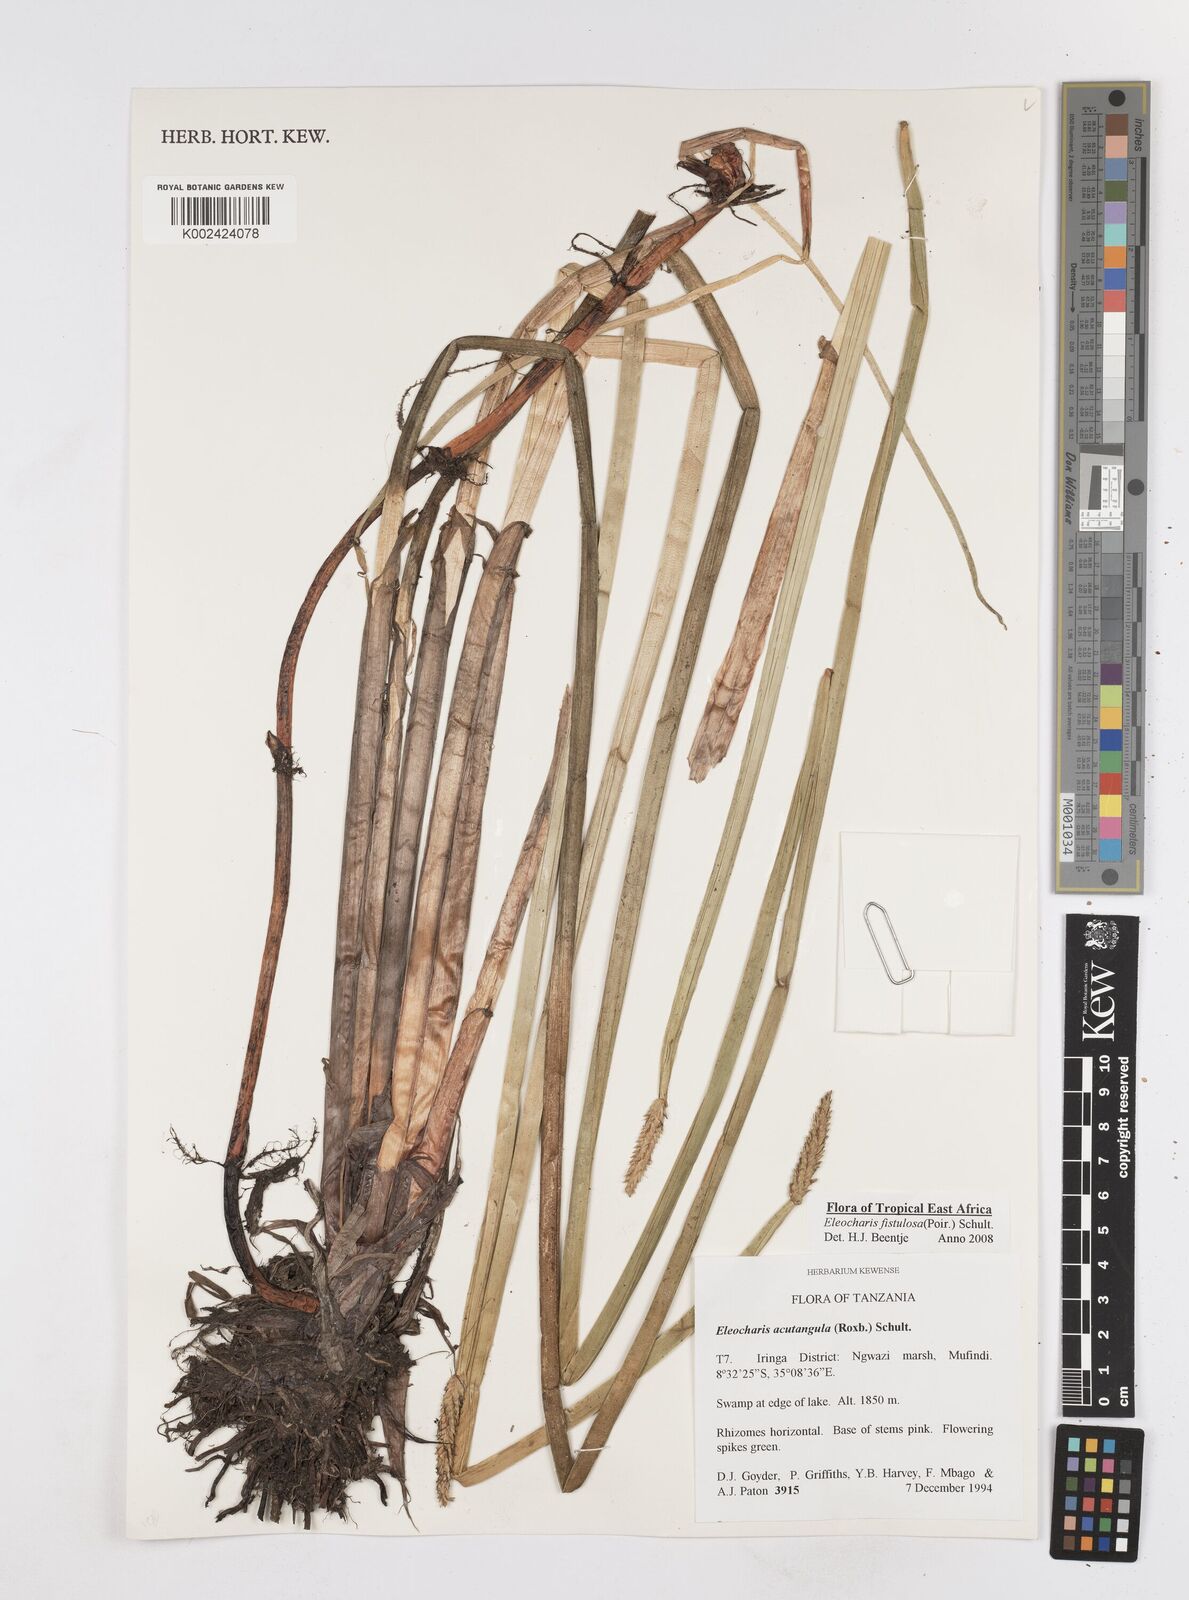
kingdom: Plantae
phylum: Tracheophyta
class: Liliopsida
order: Poales
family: Cyperaceae
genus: Eleocharis
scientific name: Eleocharis acutangula
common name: Acute spikerush
